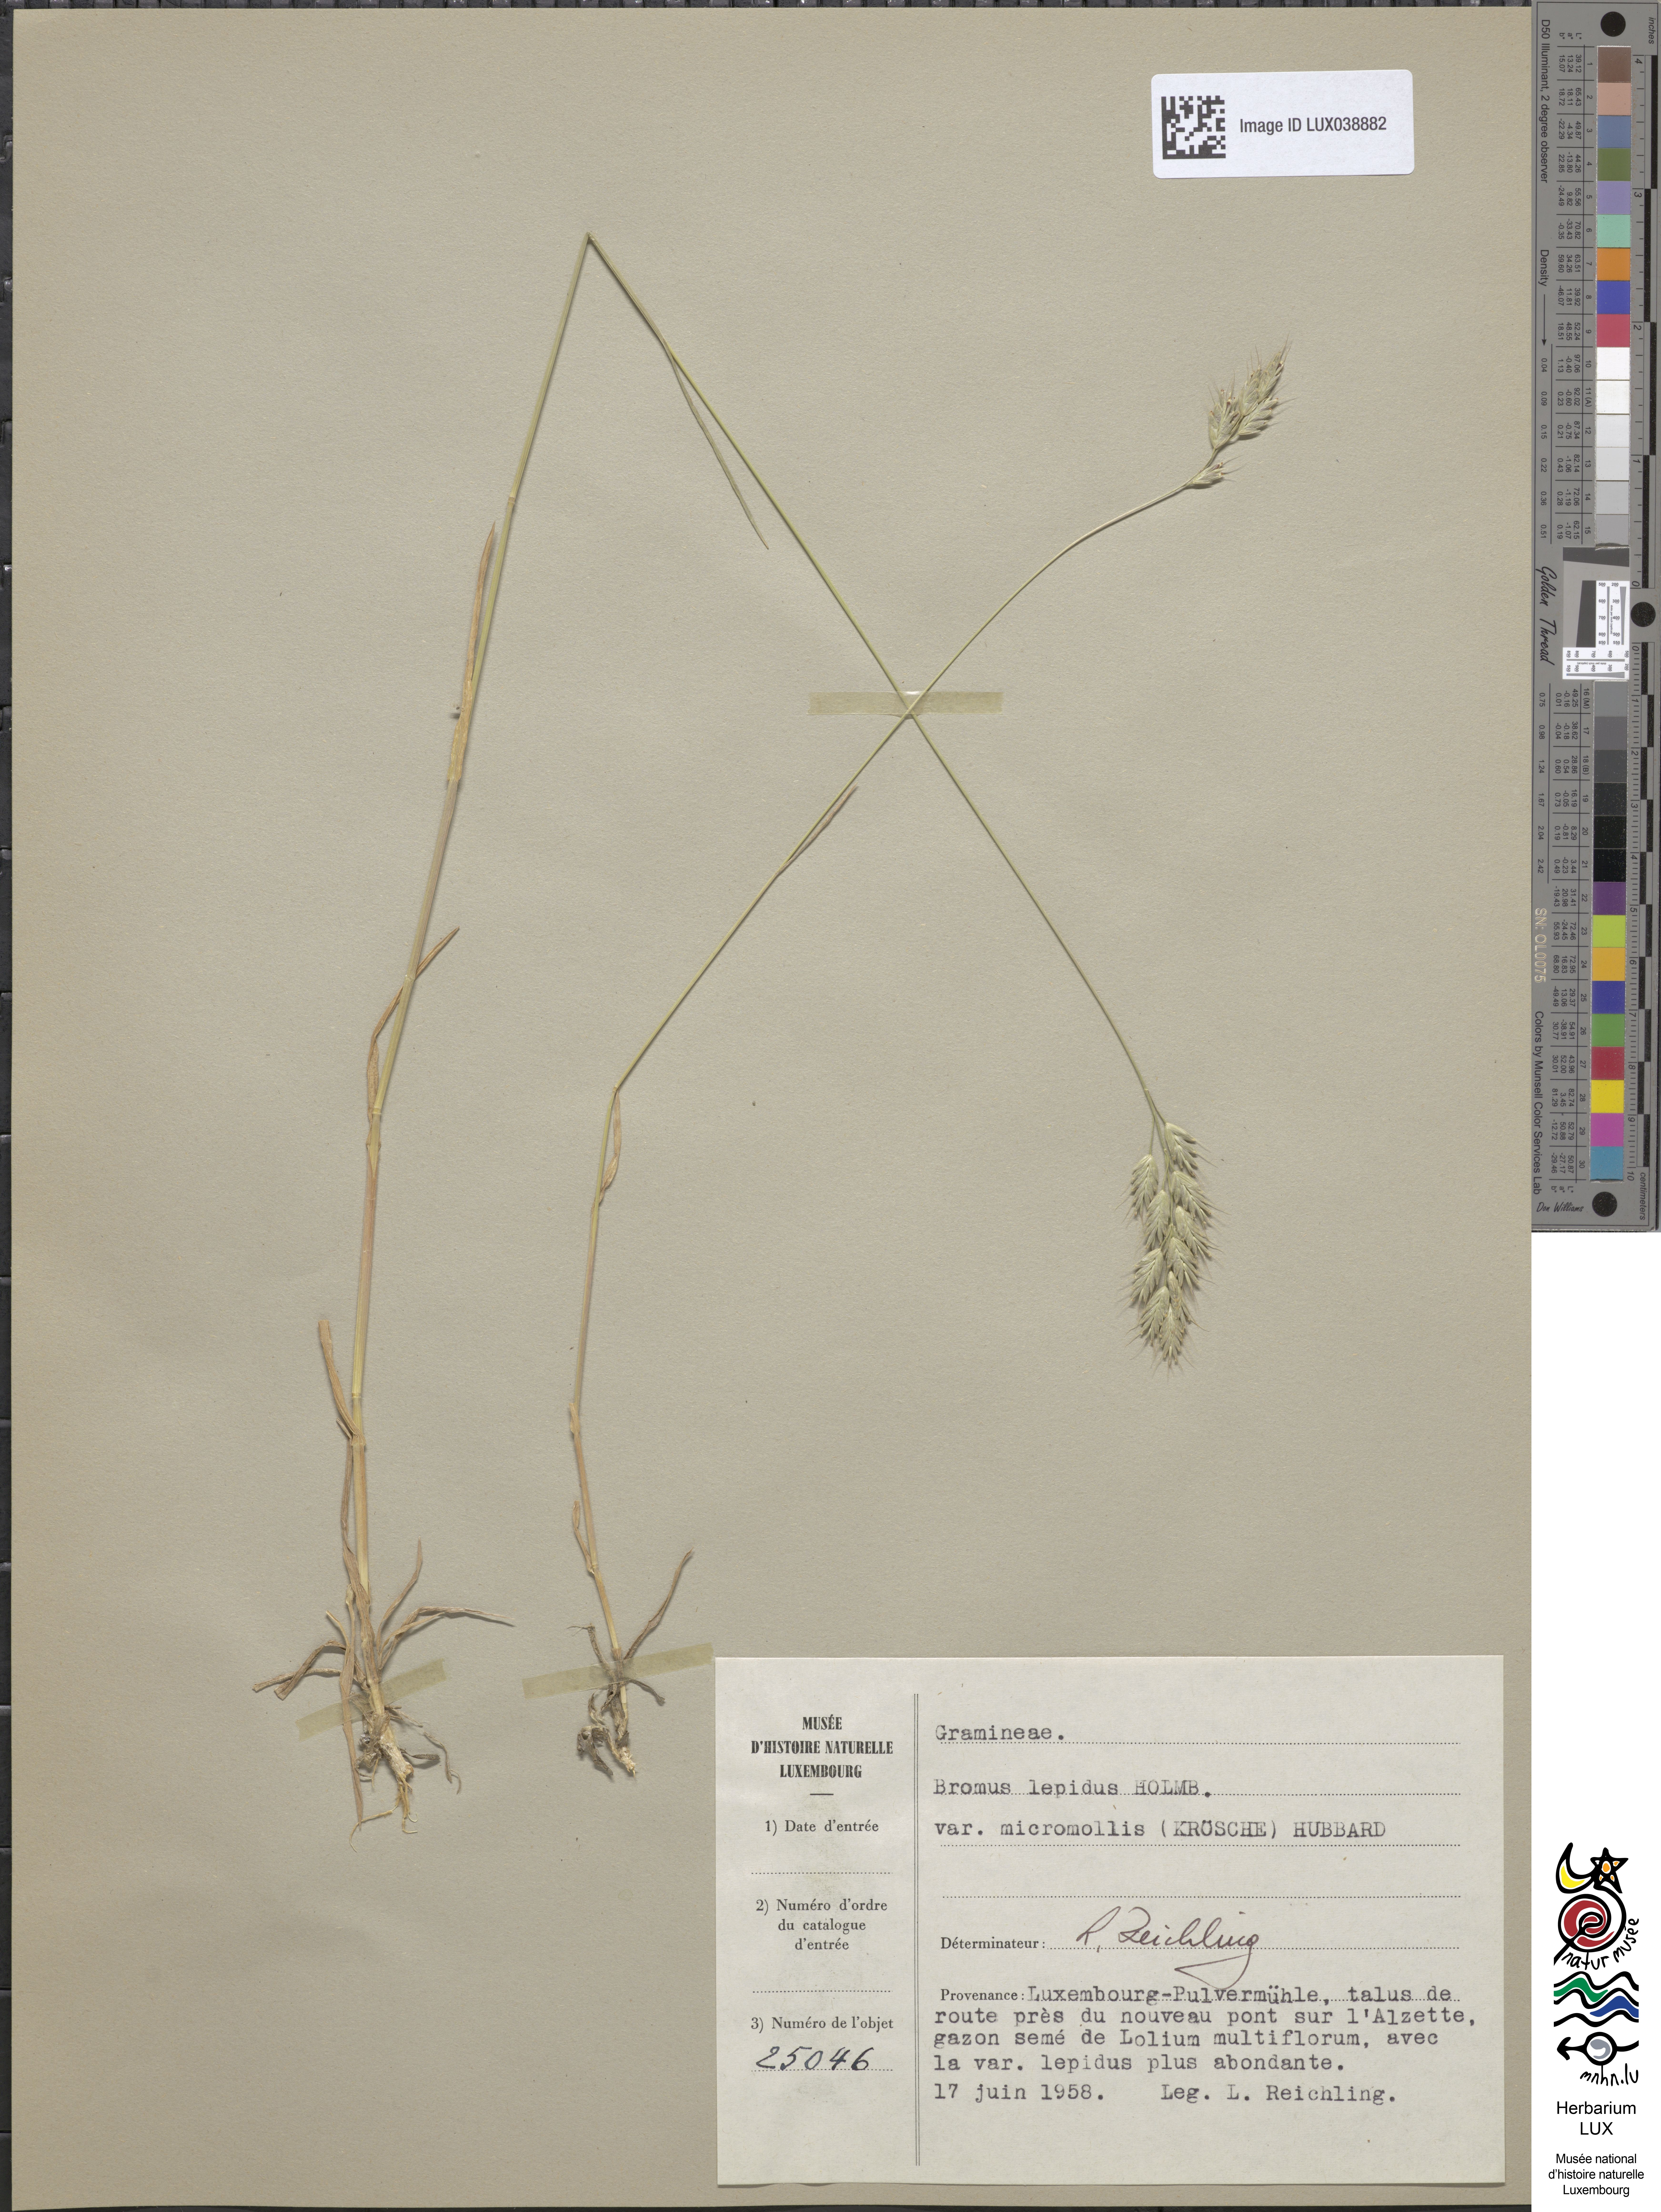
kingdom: Plantae
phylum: Tracheophyta
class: Liliopsida
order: Poales
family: Poaceae
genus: Bromus
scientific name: Bromus ferronii
